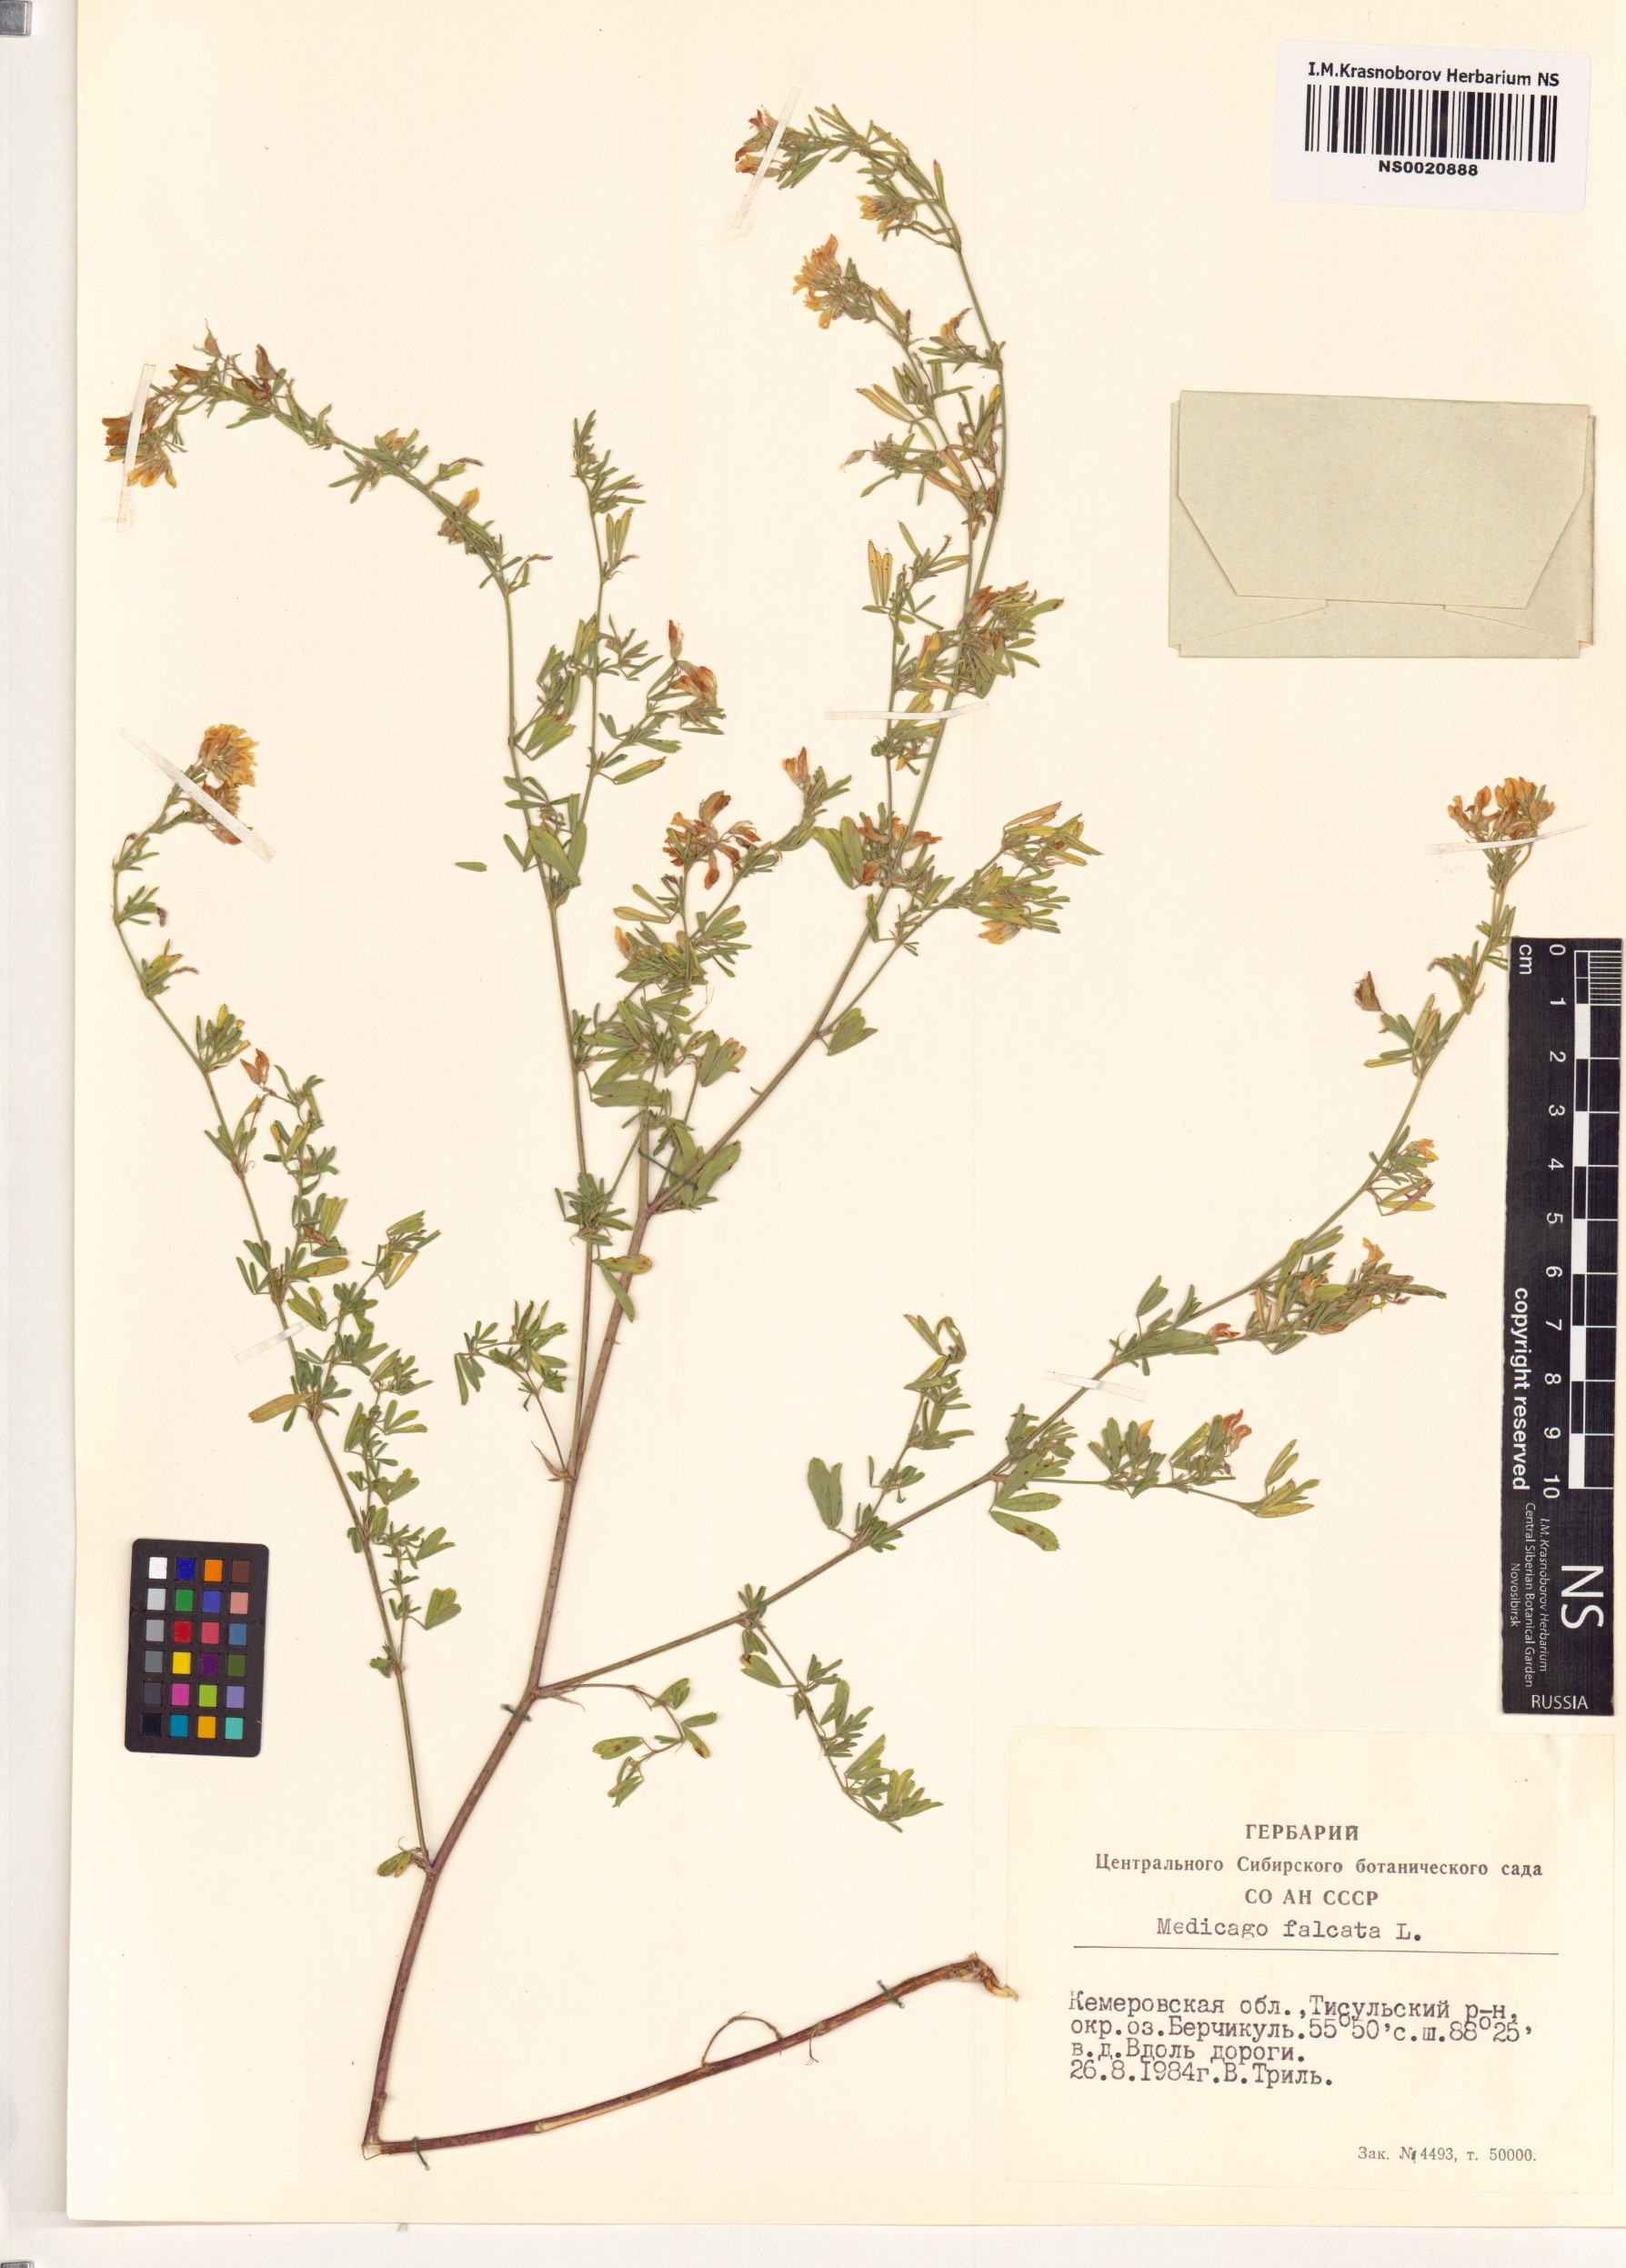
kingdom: Plantae
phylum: Tracheophyta
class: Magnoliopsida
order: Fabales
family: Fabaceae
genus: Medicago
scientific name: Medicago falcata
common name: Sickle medick
